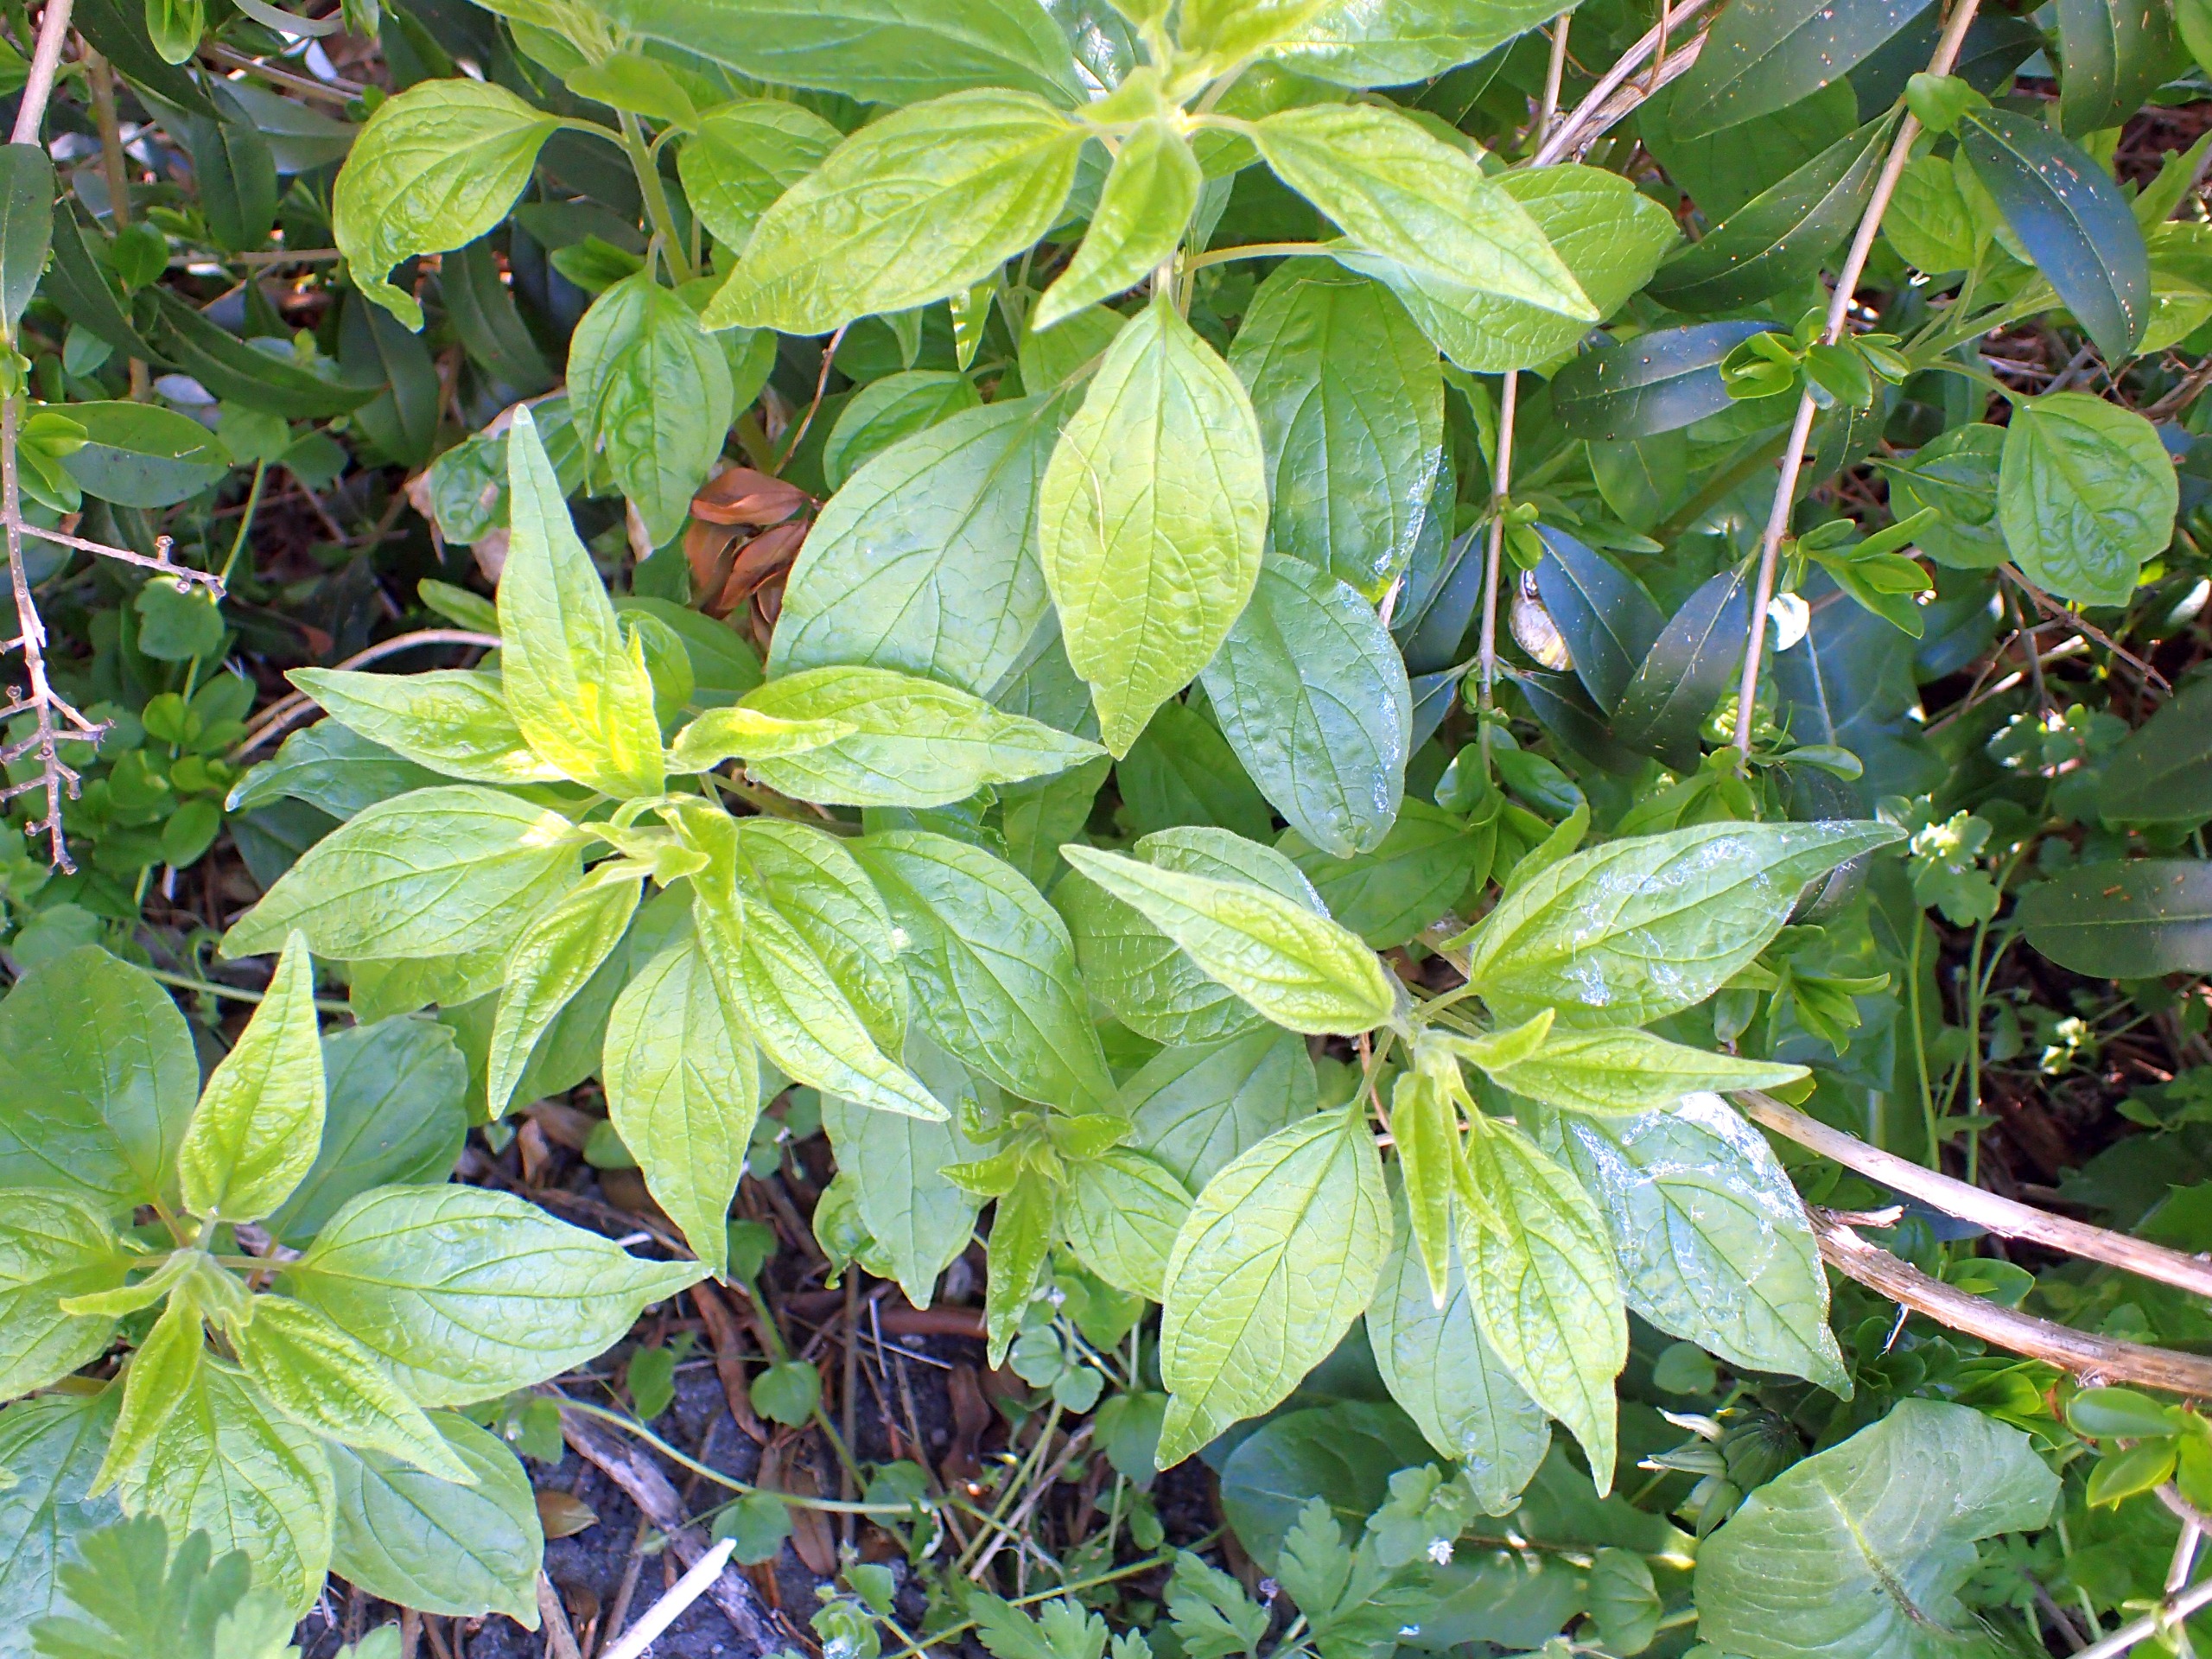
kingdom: Plantae
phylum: Tracheophyta
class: Magnoliopsida
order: Rosales
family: Urticaceae
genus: Parietaria
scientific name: Parietaria officinalis
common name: Almindelig springknap
